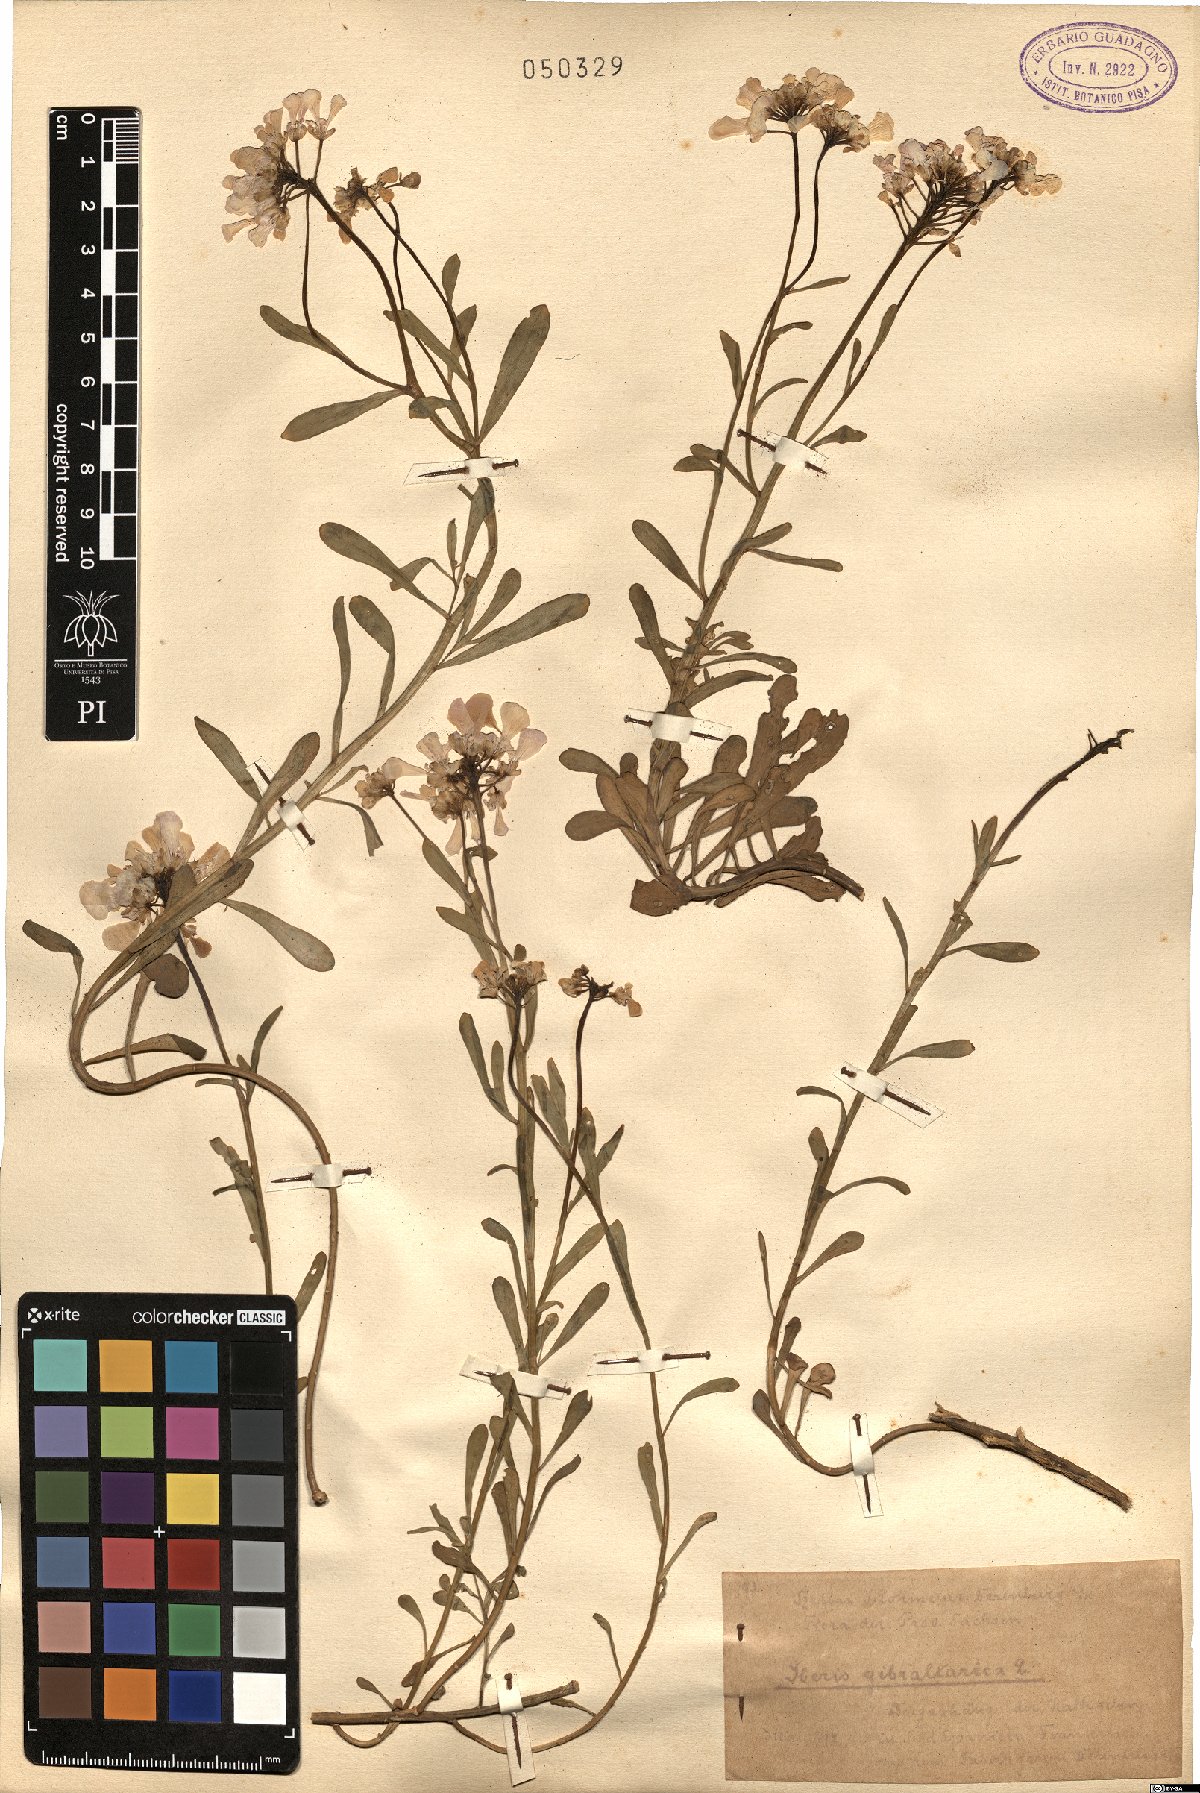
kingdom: Plantae
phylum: Tracheophyta
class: Magnoliopsida
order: Brassicales
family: Brassicaceae
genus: Iberis
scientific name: Iberis gibraltarica
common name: Gibraltar candytuft
